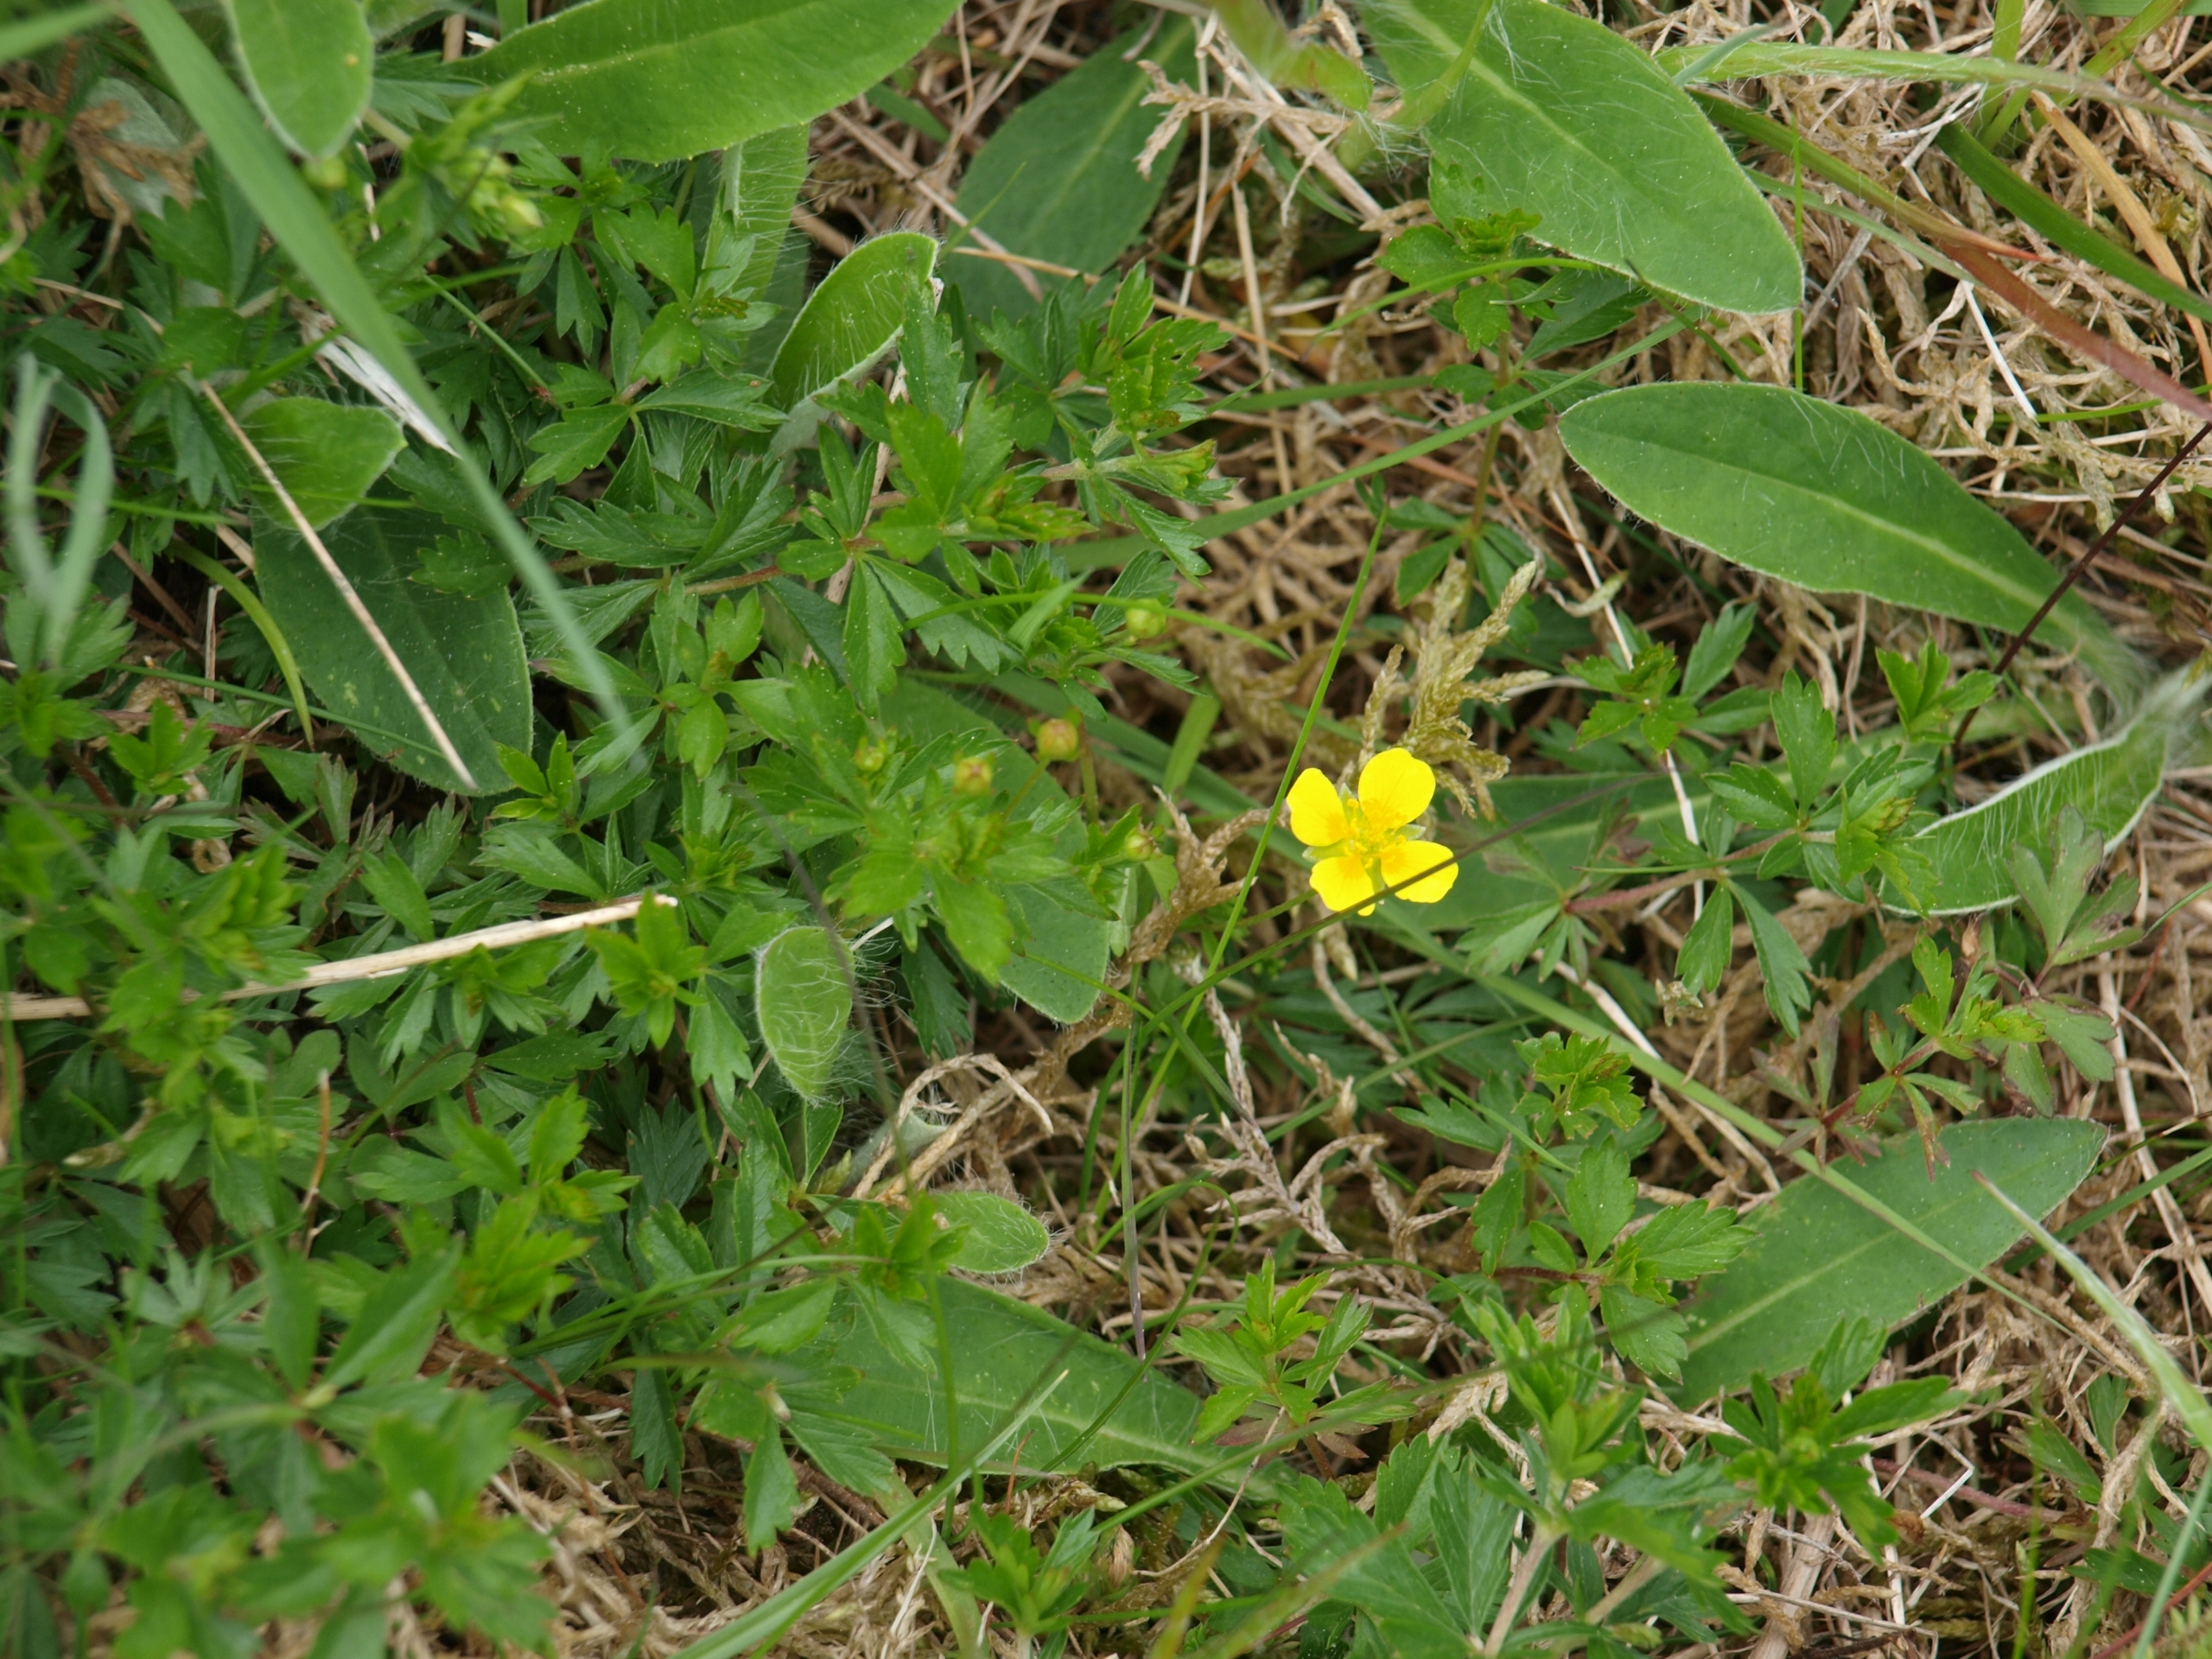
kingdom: Plantae
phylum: Tracheophyta
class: Magnoliopsida
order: Rosales
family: Rosaceae
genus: Potentilla
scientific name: Potentilla erecta
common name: Tormentil
